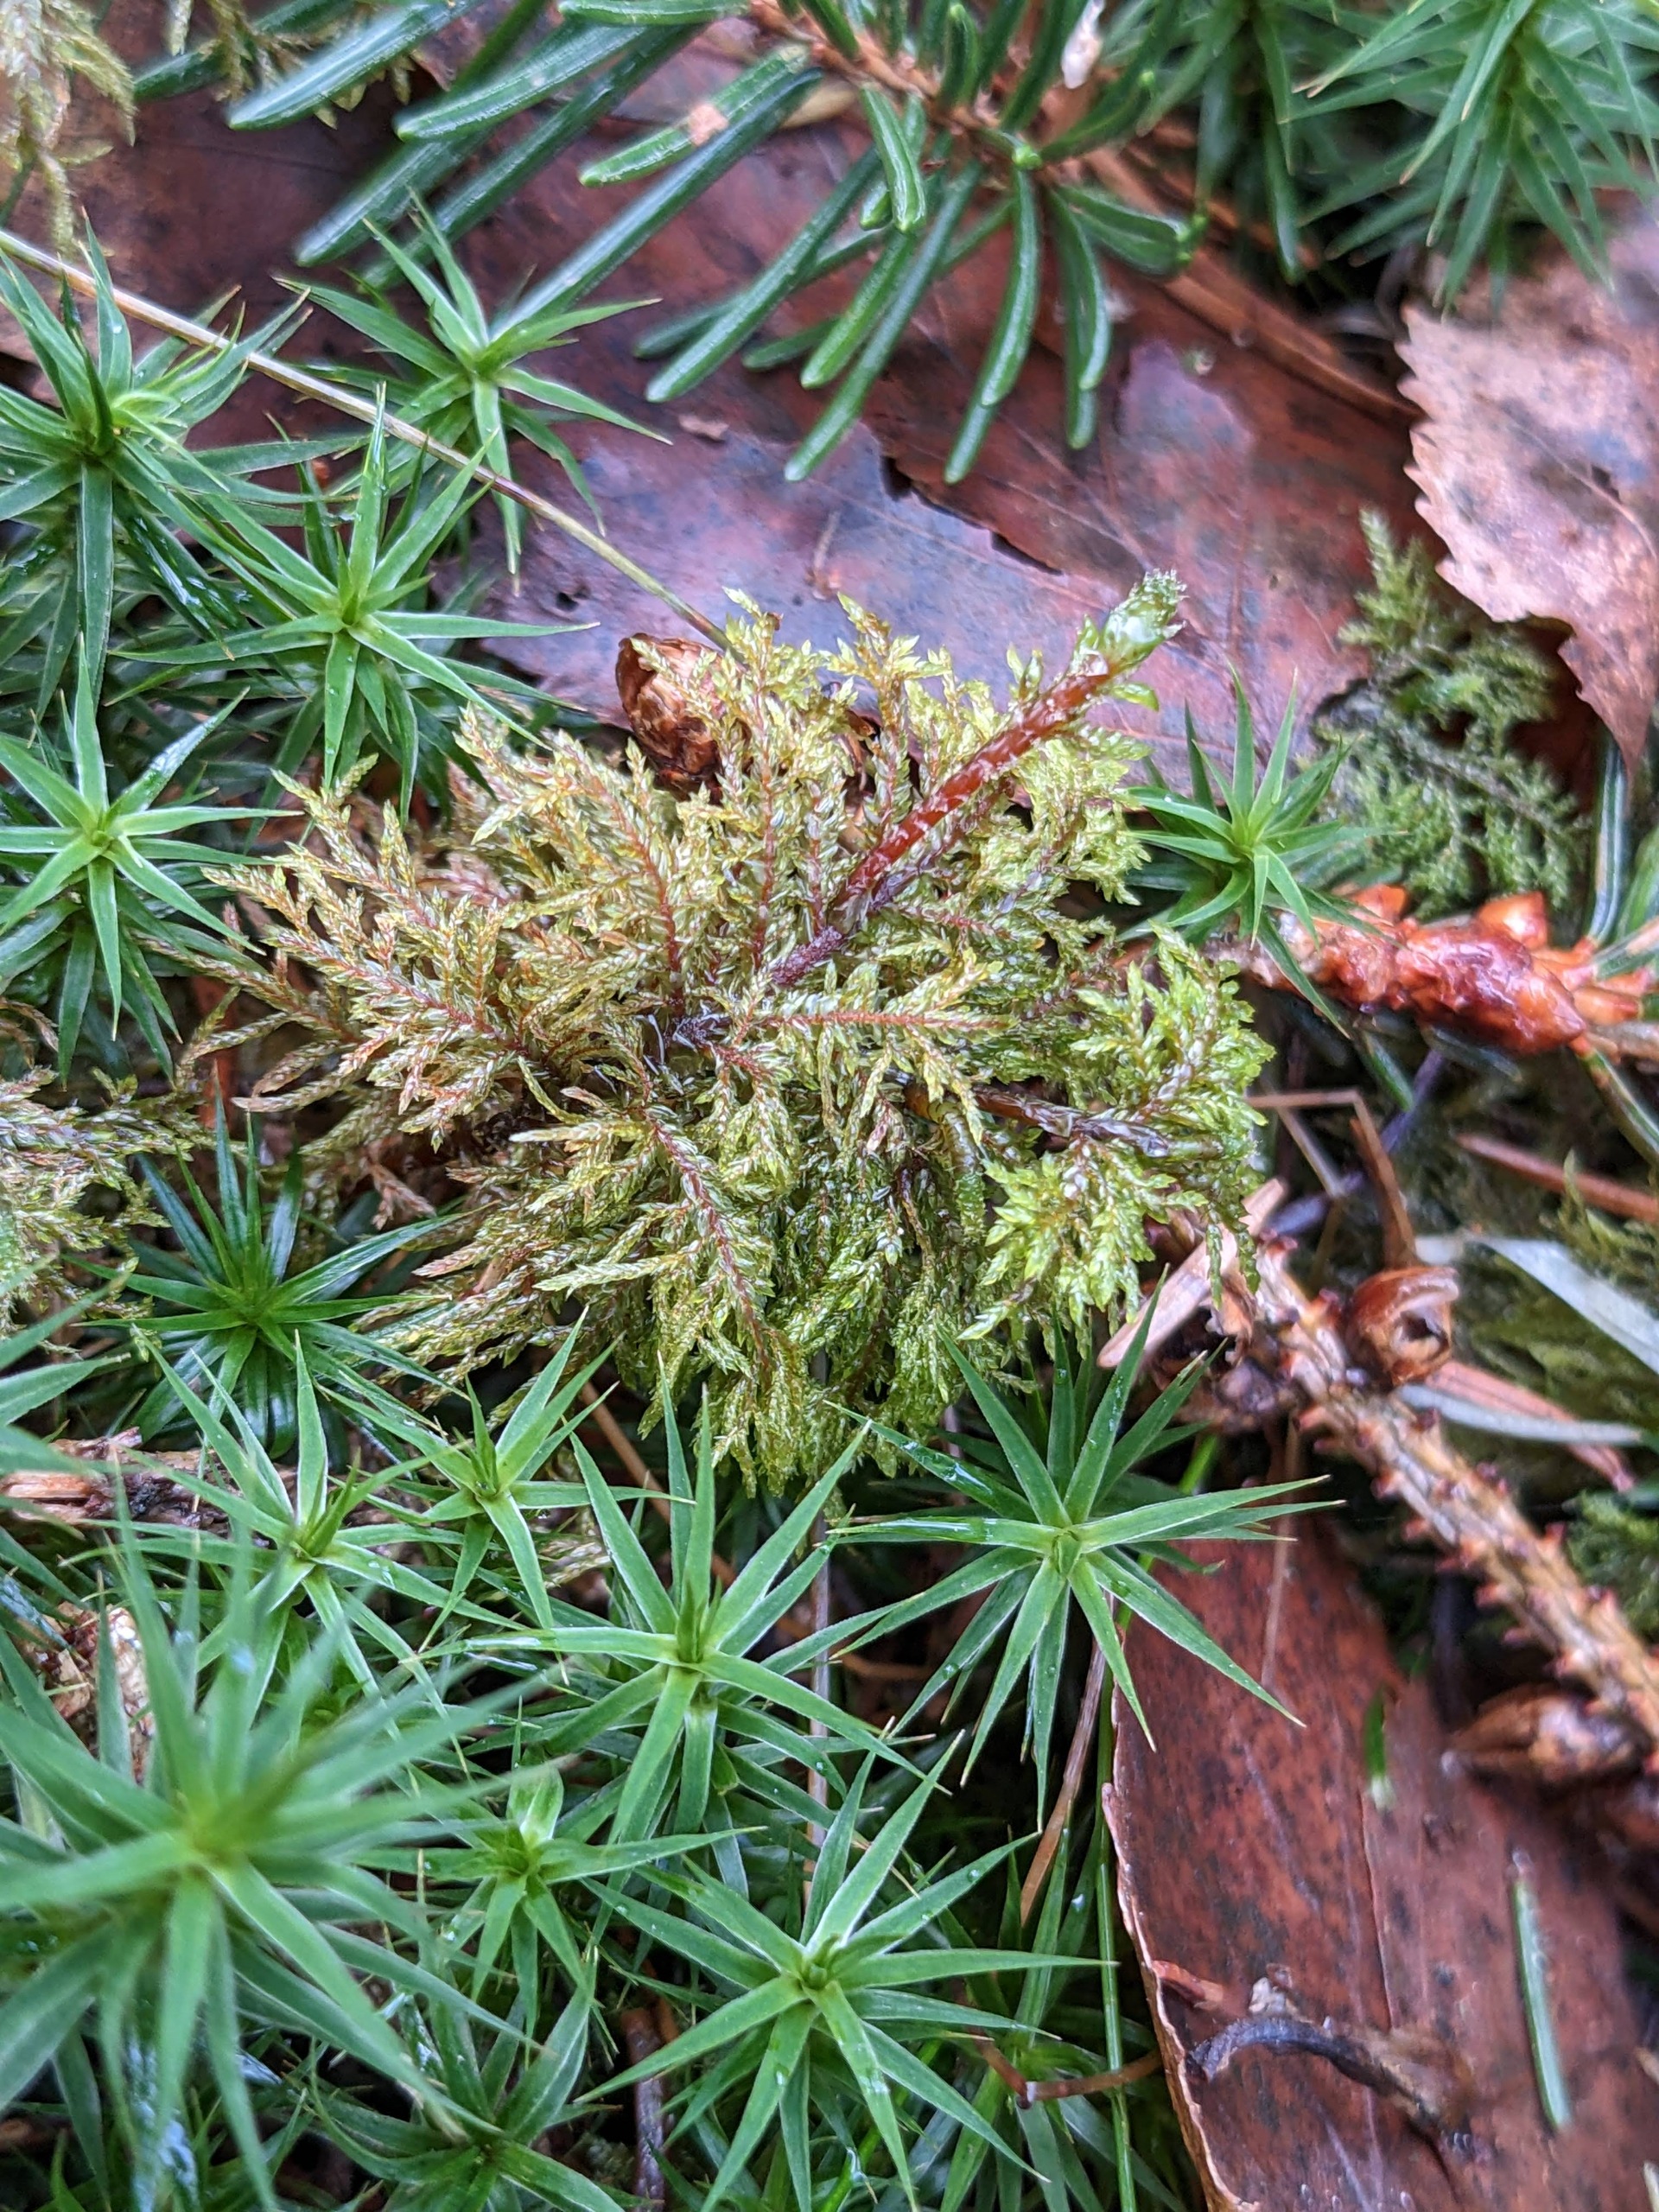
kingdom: Plantae
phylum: Bryophyta
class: Bryopsida
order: Hypnales
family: Hylocomiaceae
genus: Hylocomium
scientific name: Hylocomium splendens
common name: Almindelig etagemos
